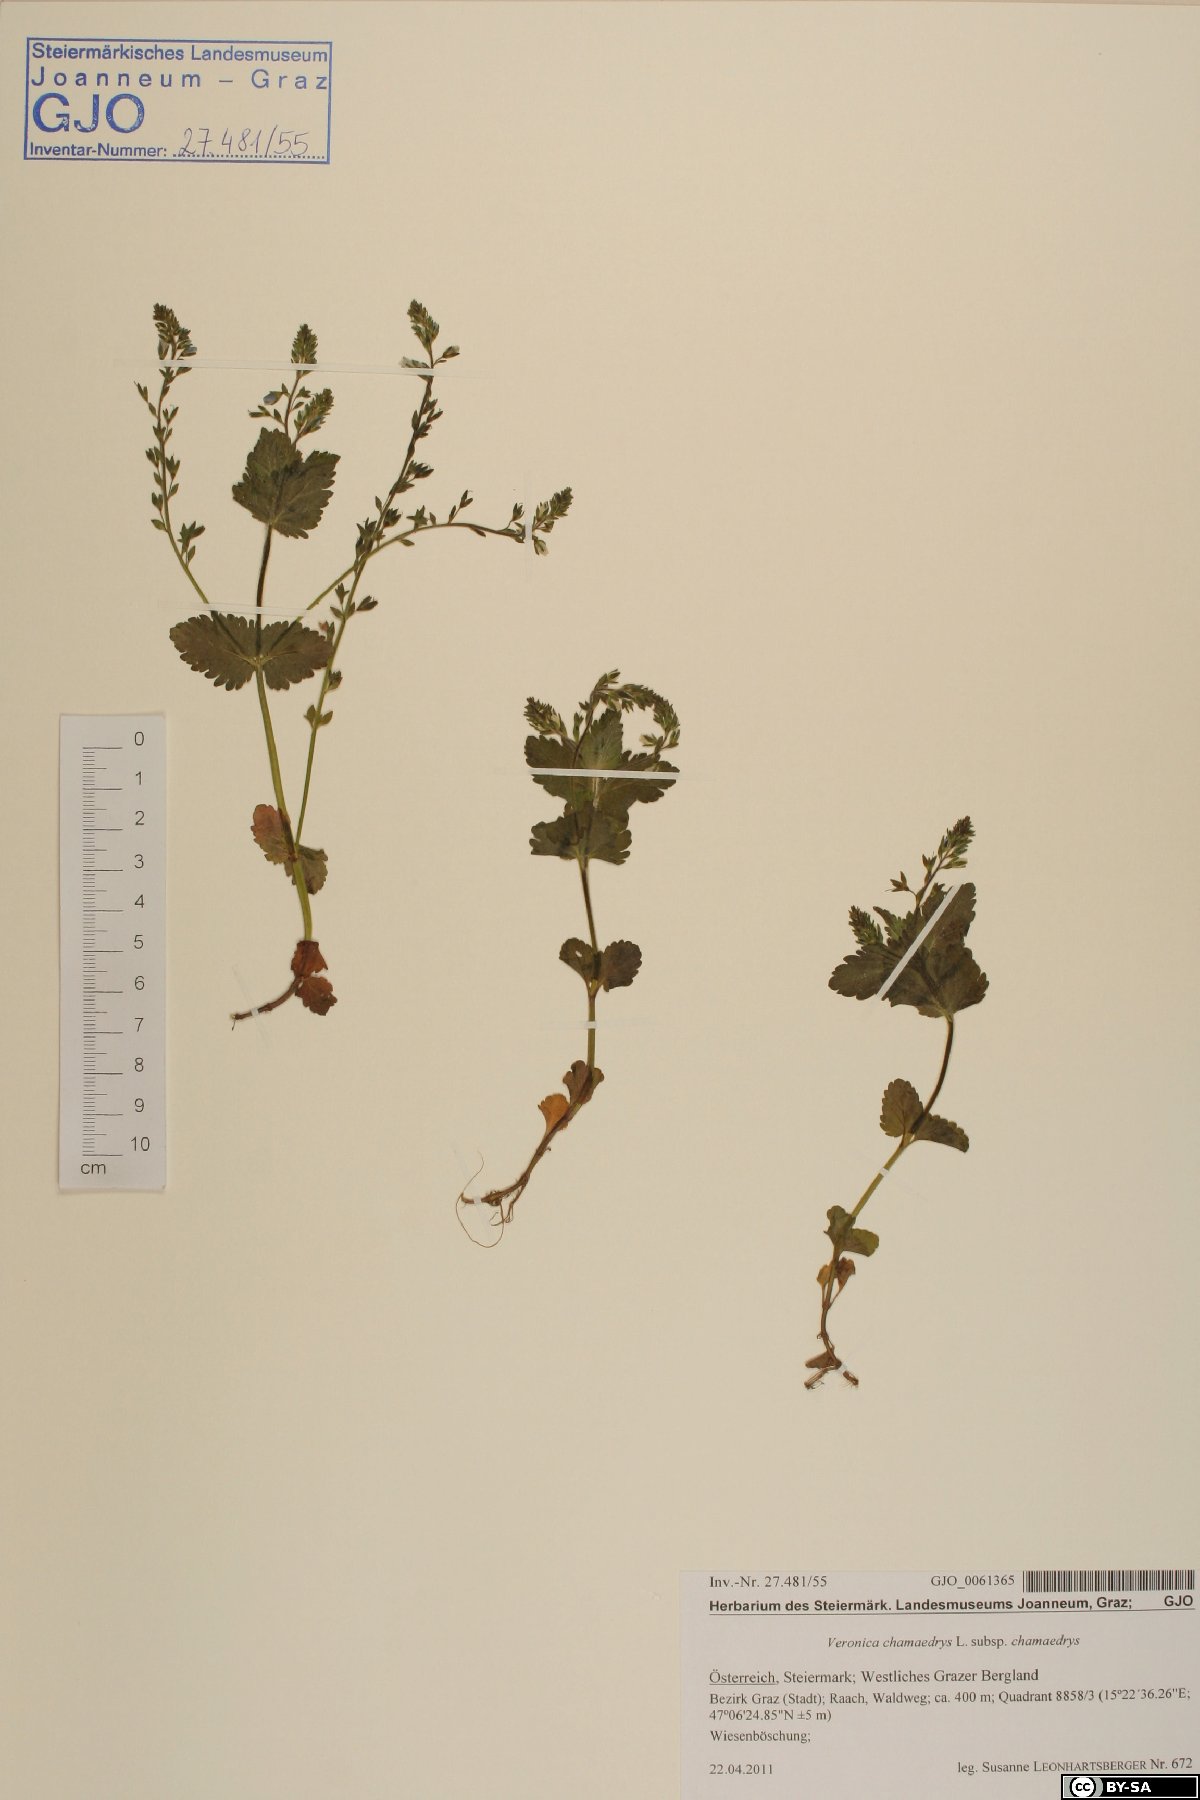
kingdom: Plantae
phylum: Tracheophyta
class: Magnoliopsida
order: Lamiales
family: Plantaginaceae
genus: Veronica
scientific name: Veronica chamaedrys
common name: Germander speedwell
